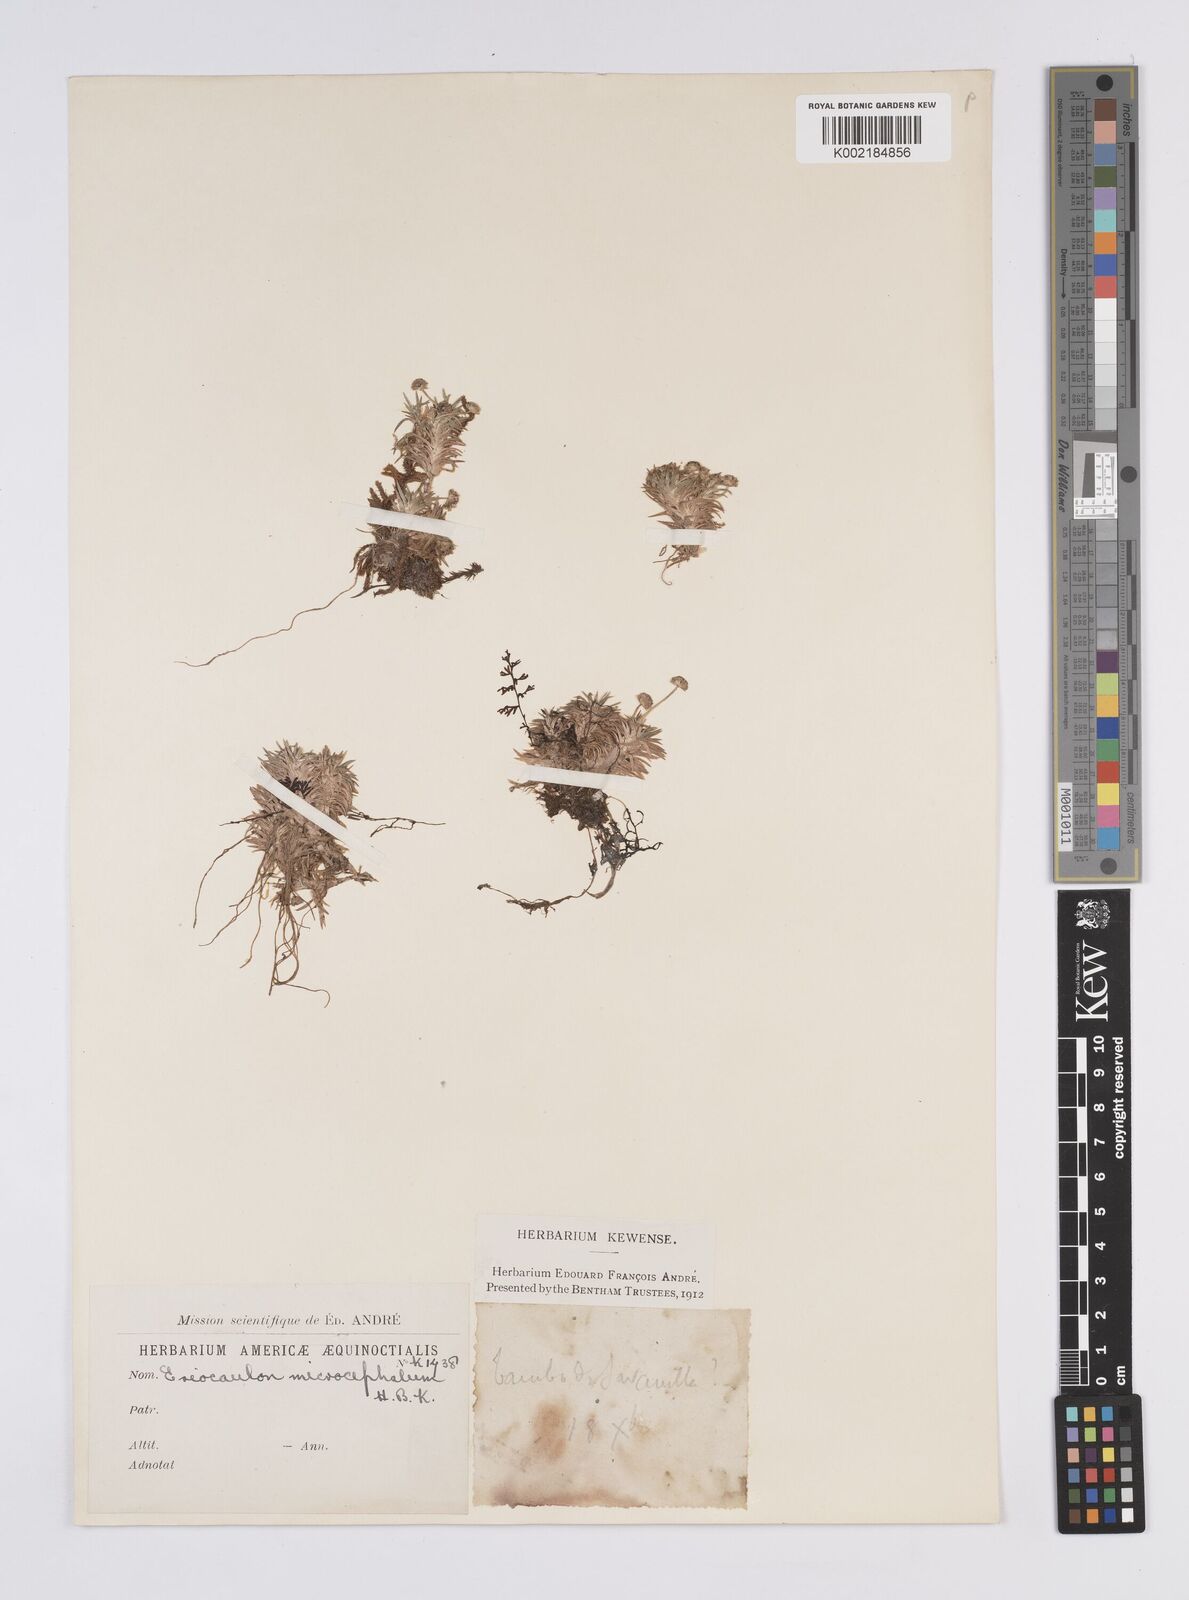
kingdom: Plantae
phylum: Tracheophyta
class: Liliopsida
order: Poales
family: Eriocaulaceae
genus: Eriocaulon
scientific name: Eriocaulon benthamii
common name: Bentham's pipewort
